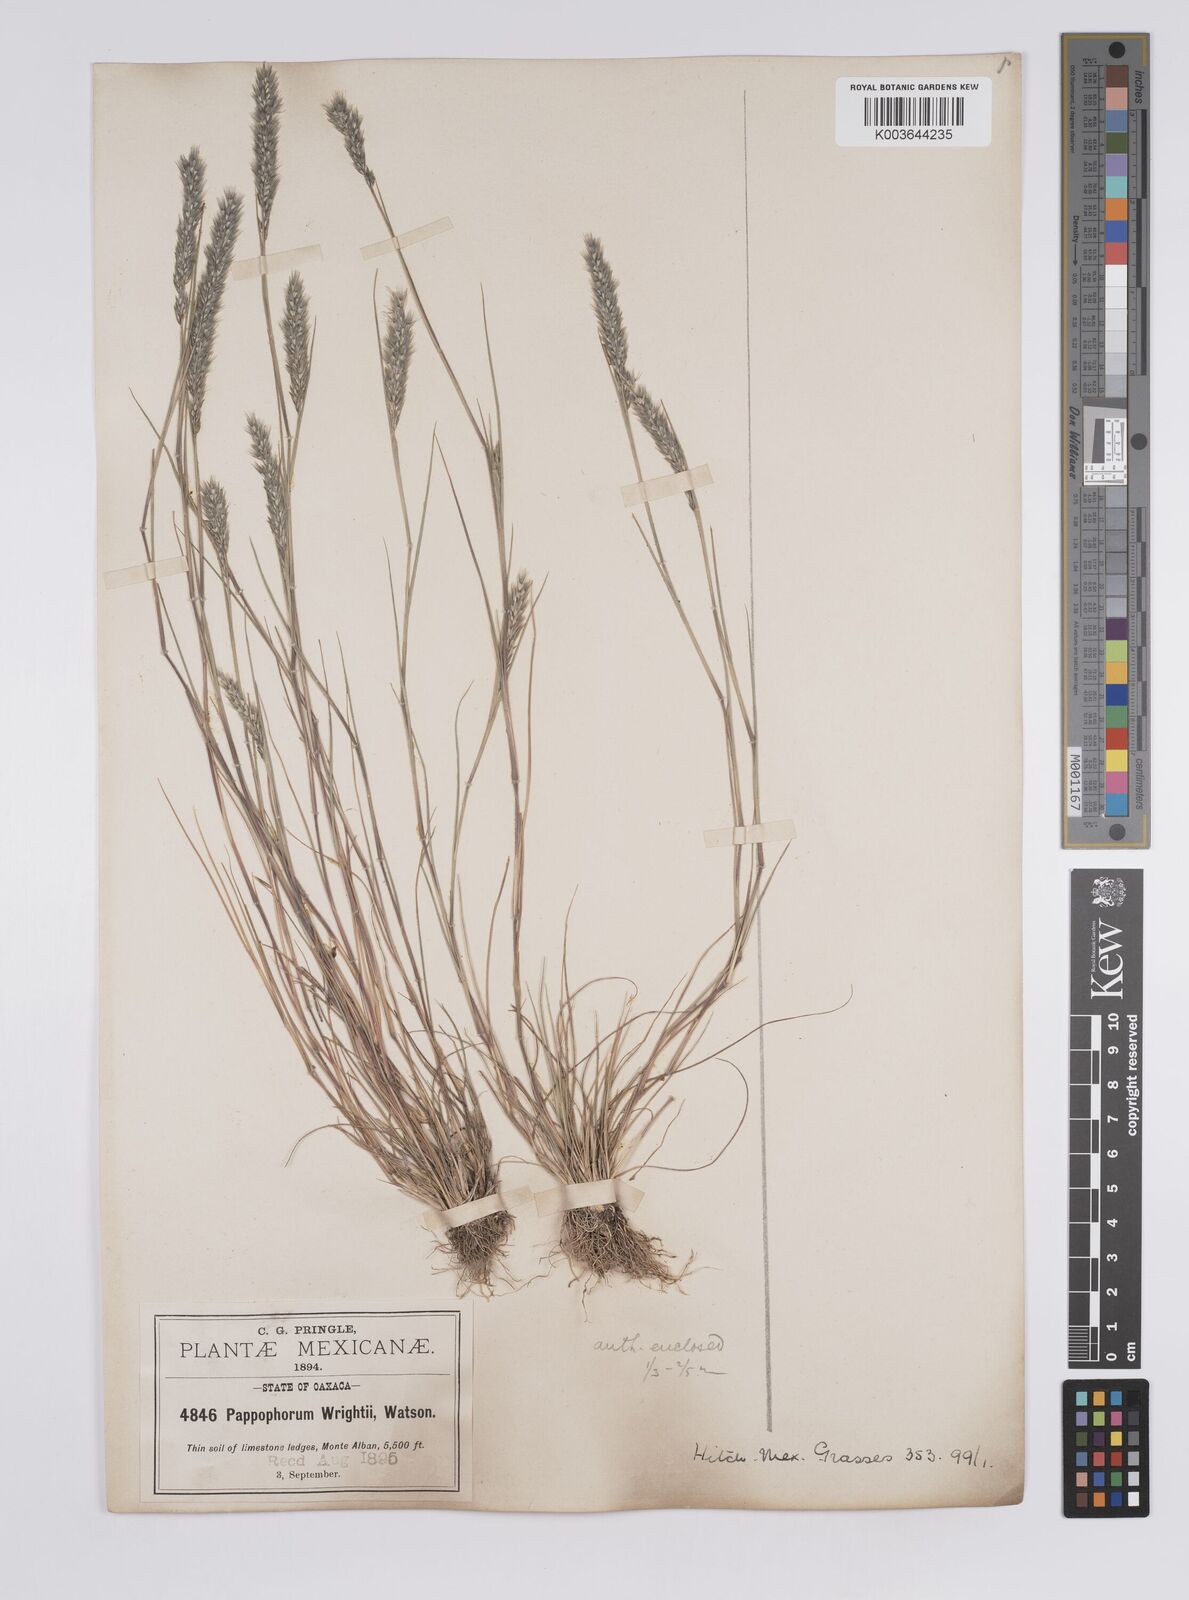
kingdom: Plantae
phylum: Tracheophyta
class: Liliopsida
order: Poales
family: Poaceae
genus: Enneapogon
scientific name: Enneapogon desvauxii
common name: Feather pappus grass
